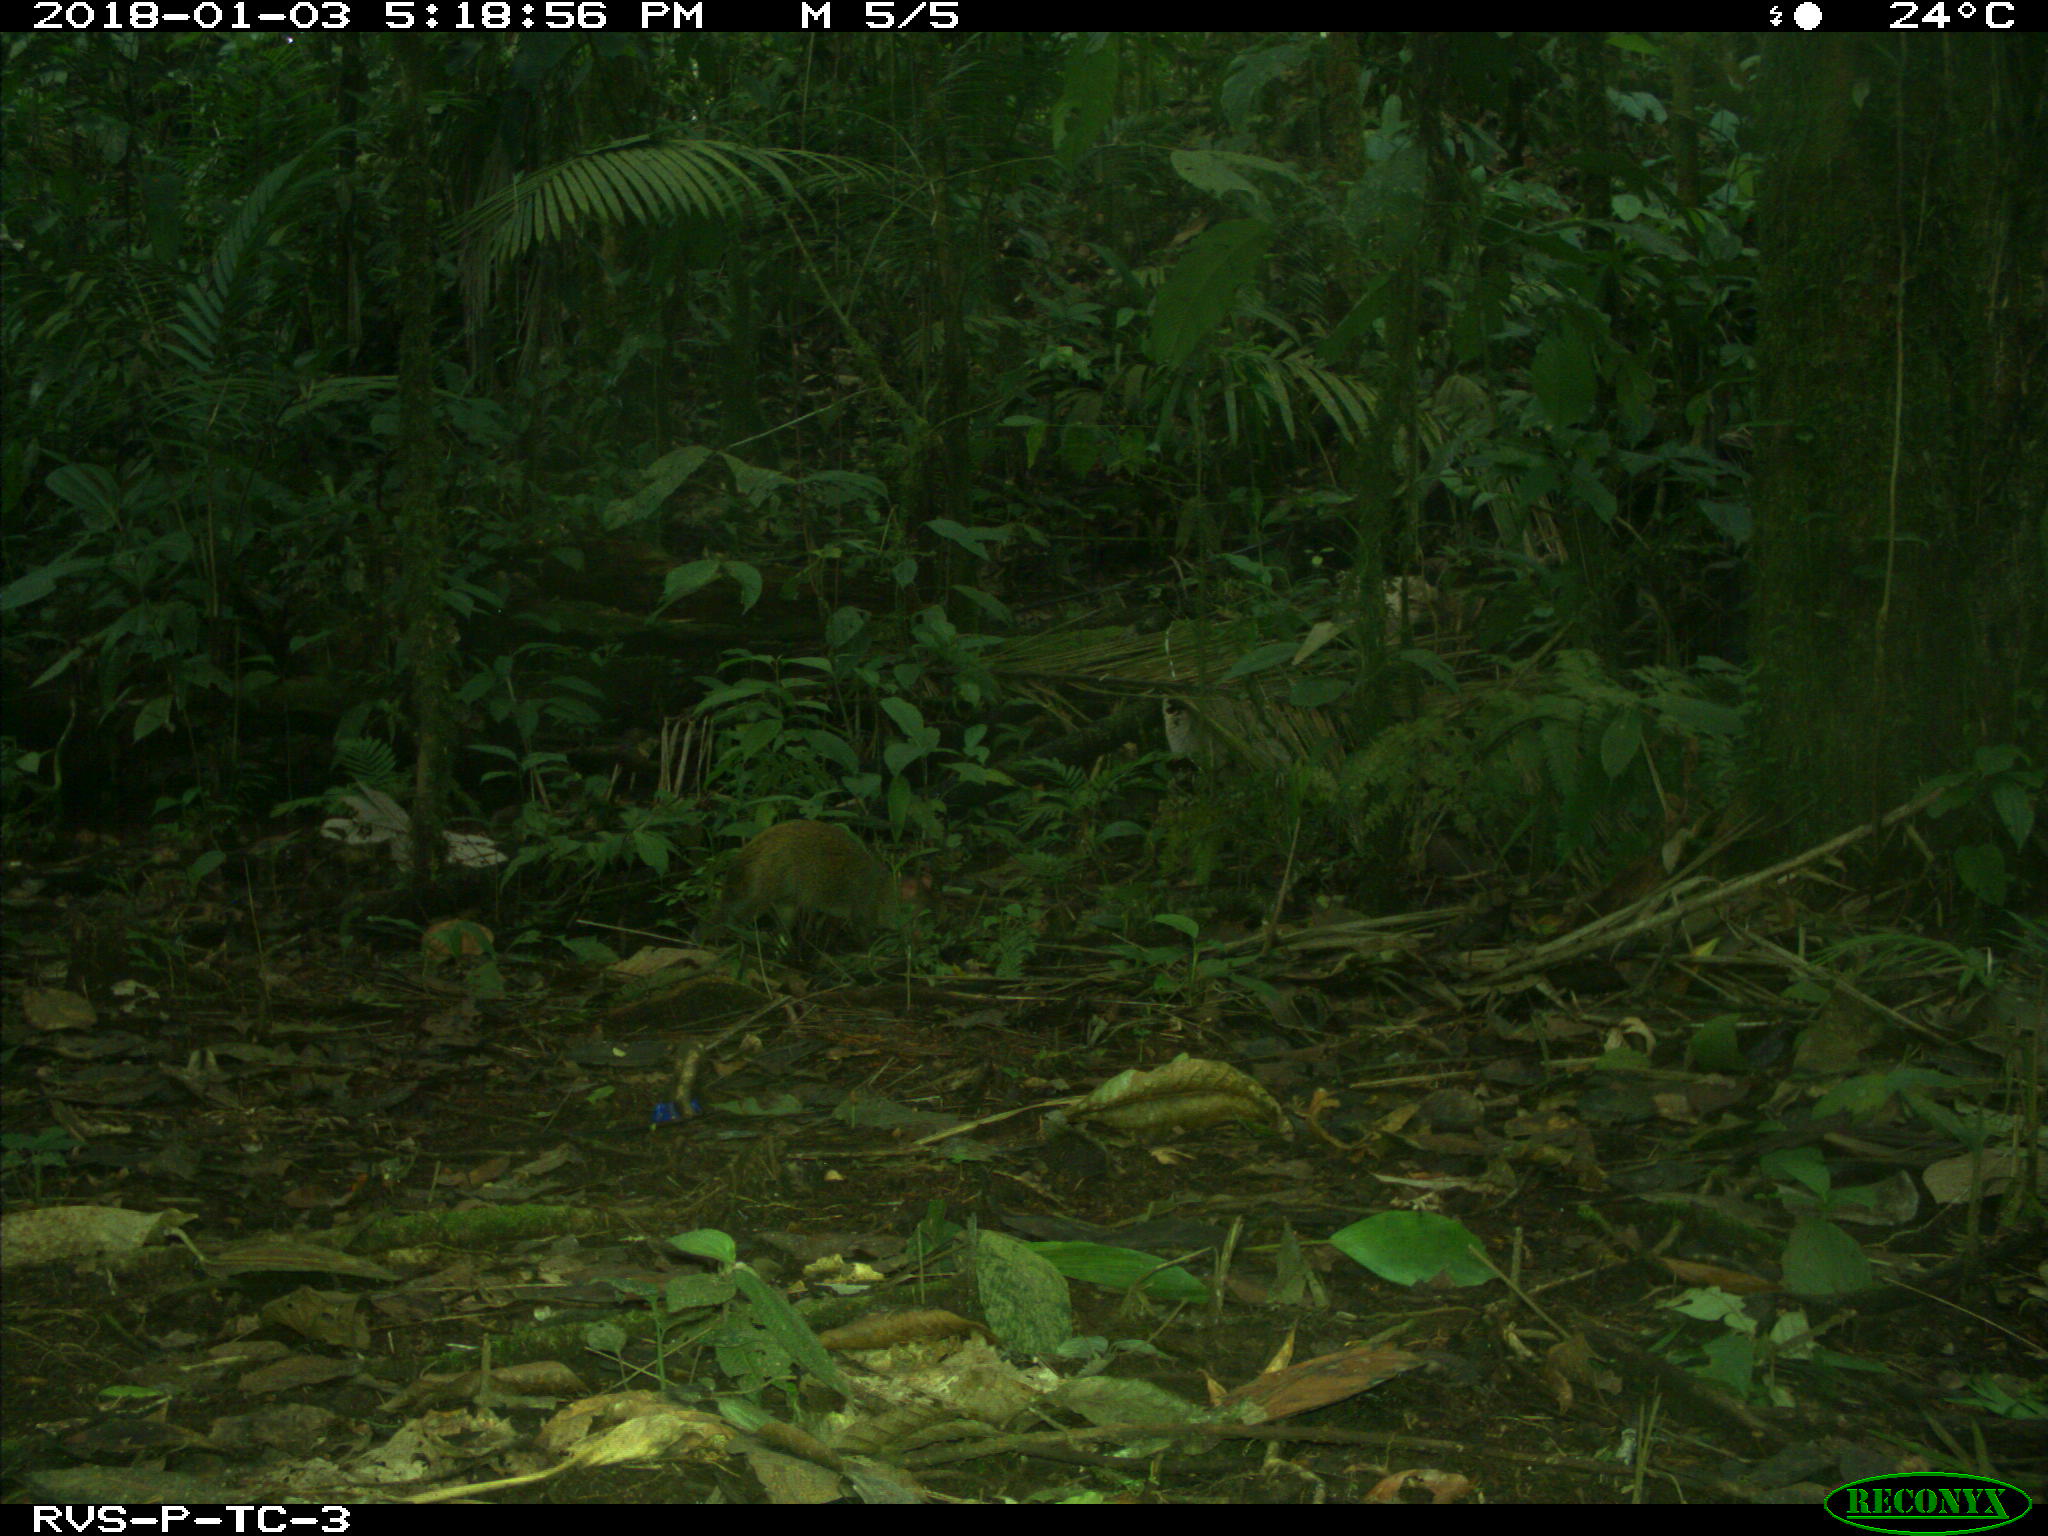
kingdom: Animalia
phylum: Chordata
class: Mammalia
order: Rodentia
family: Dasyproctidae
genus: Dasyprocta
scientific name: Dasyprocta punctata
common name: Central american agouti
